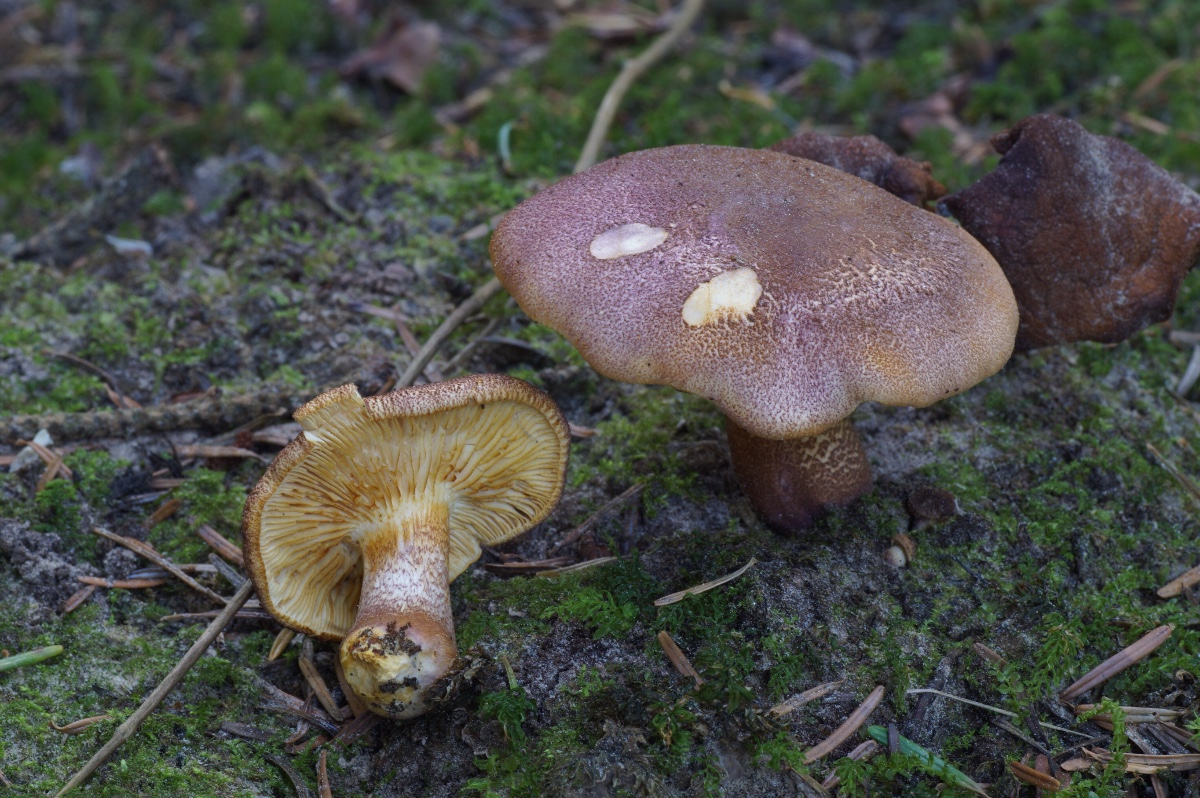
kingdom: Fungi
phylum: Basidiomycota
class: Agaricomycetes
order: Agaricales
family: Tricholomataceae
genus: Tricholomopsis
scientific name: Tricholomopsis rutilans
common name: purpur-væbnerhat
